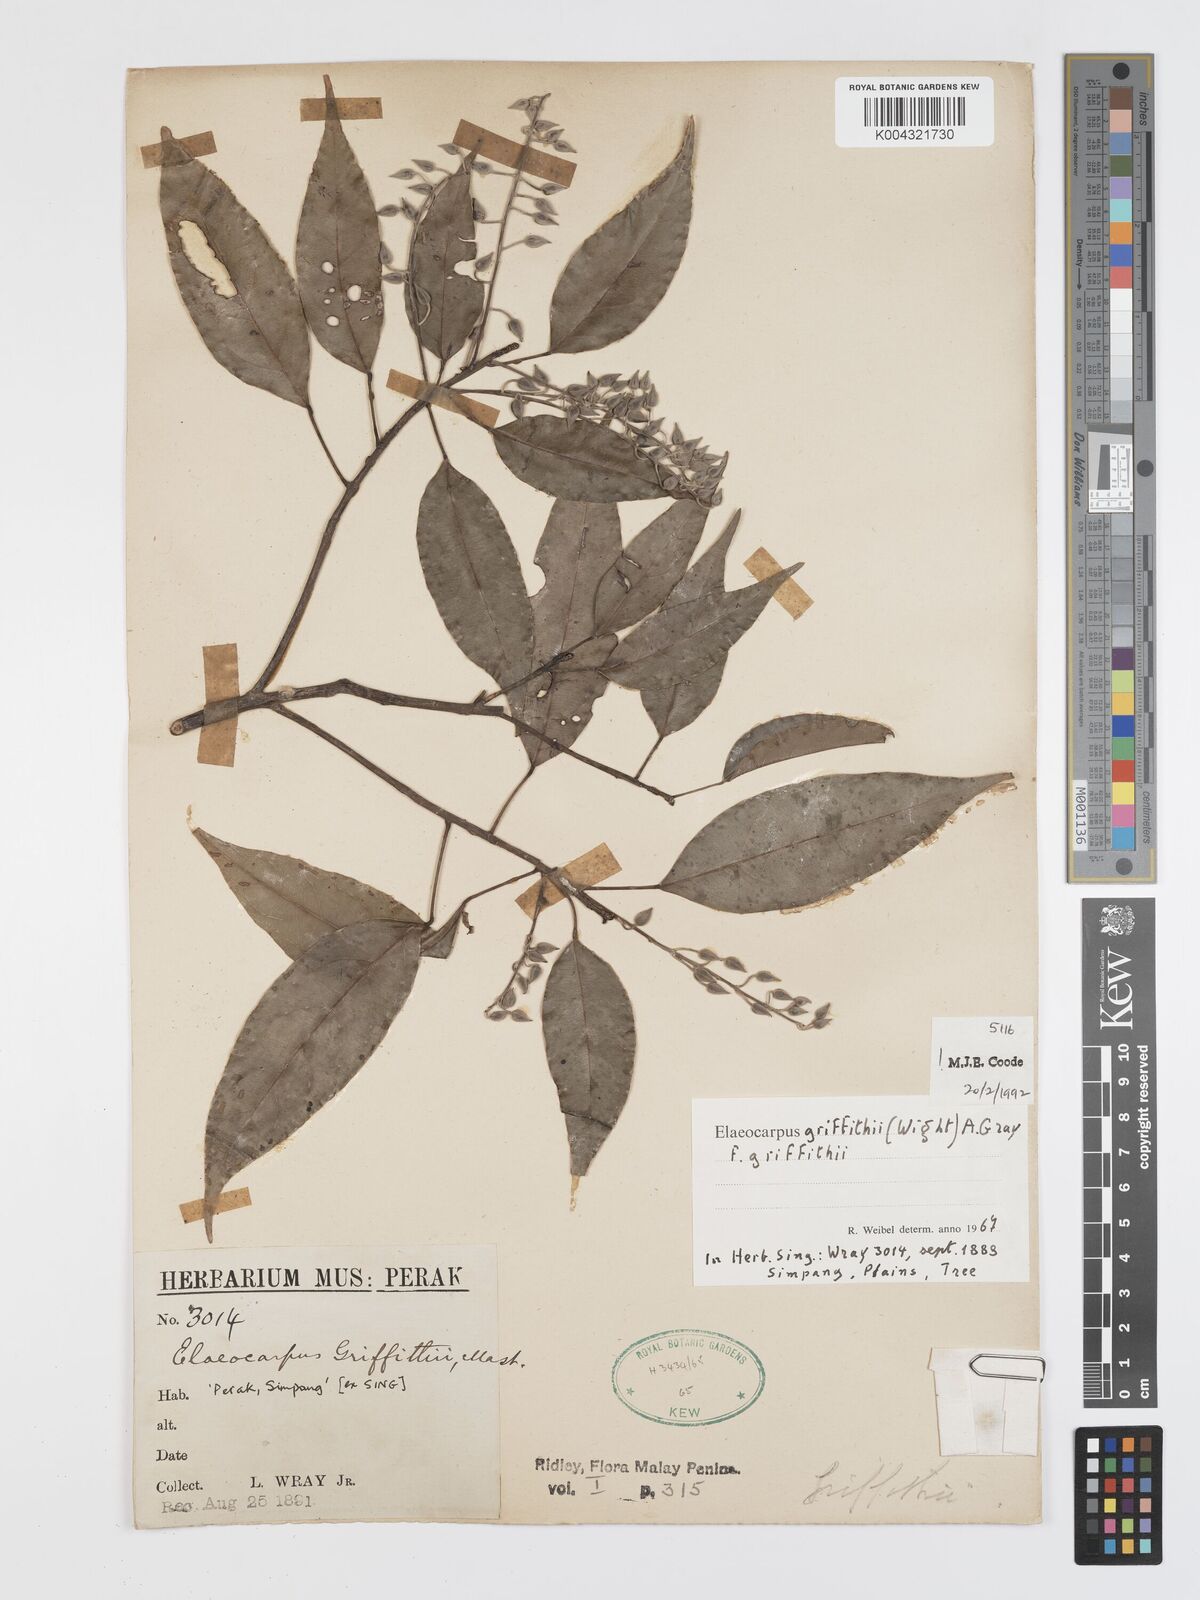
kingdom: Plantae
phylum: Tracheophyta
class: Magnoliopsida
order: Oxalidales
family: Elaeocarpaceae
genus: Elaeocarpus
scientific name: Elaeocarpus griffithii
